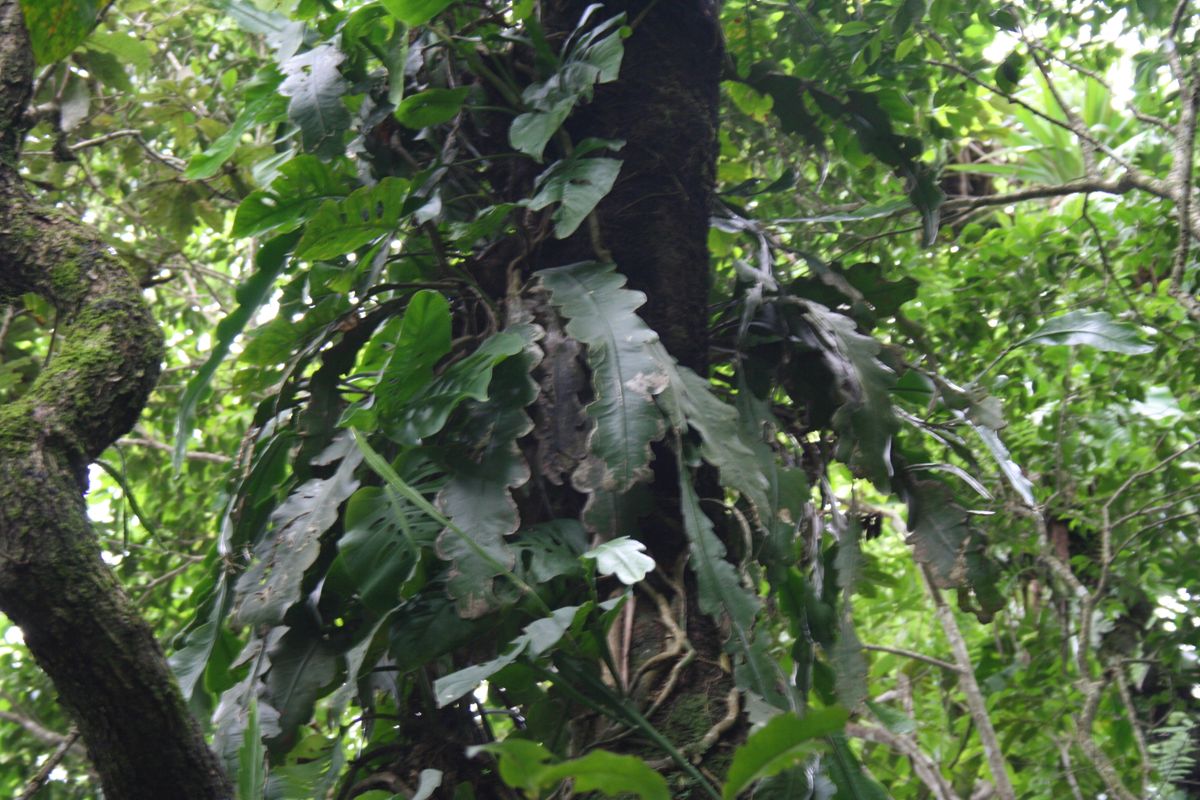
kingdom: Plantae
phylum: Tracheophyta
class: Magnoliopsida
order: Caryophyllales
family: Cactaceae
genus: Disocactus
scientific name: Disocactus crenatus
